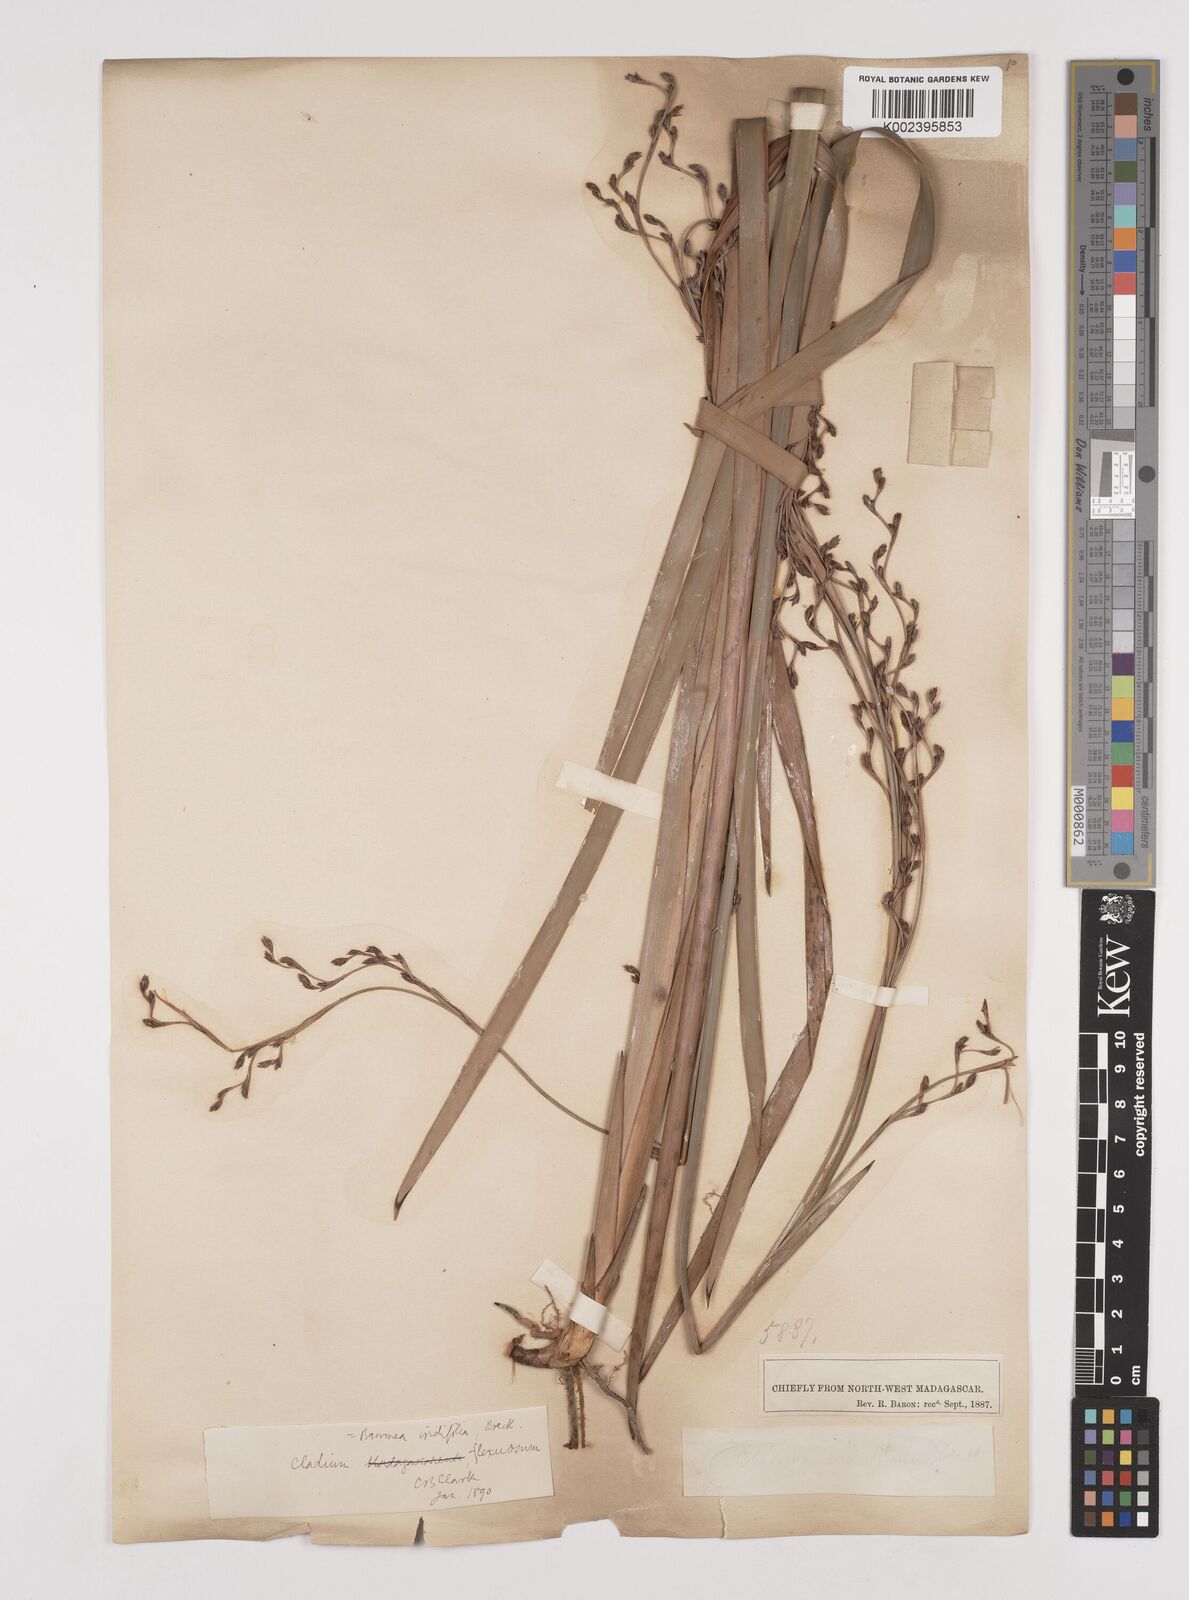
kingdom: Plantae
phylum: Tracheophyta
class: Liliopsida
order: Poales
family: Cyperaceae
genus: Machaerina
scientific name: Machaerina flexuosa
